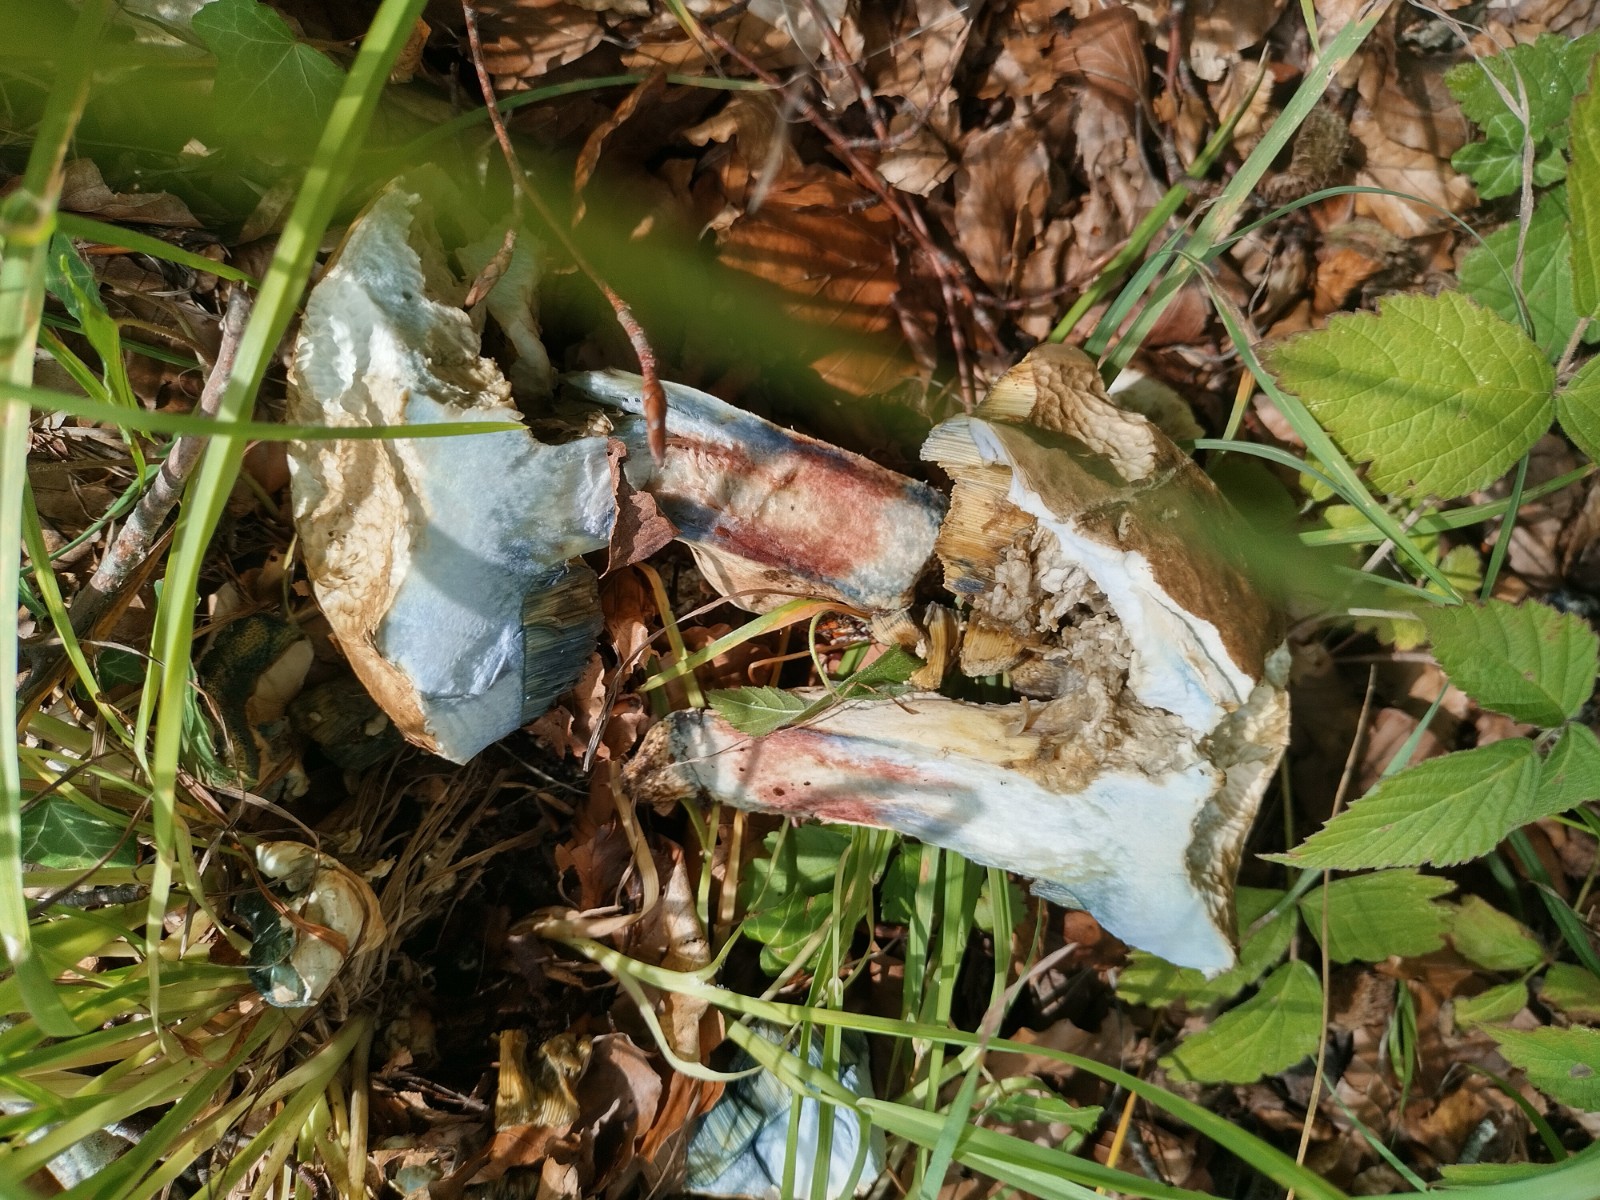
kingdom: Fungi
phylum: Basidiomycota
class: Agaricomycetes
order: Boletales
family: Boletaceae
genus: Caloboletus
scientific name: Caloboletus radicans
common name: rod-rørhat
